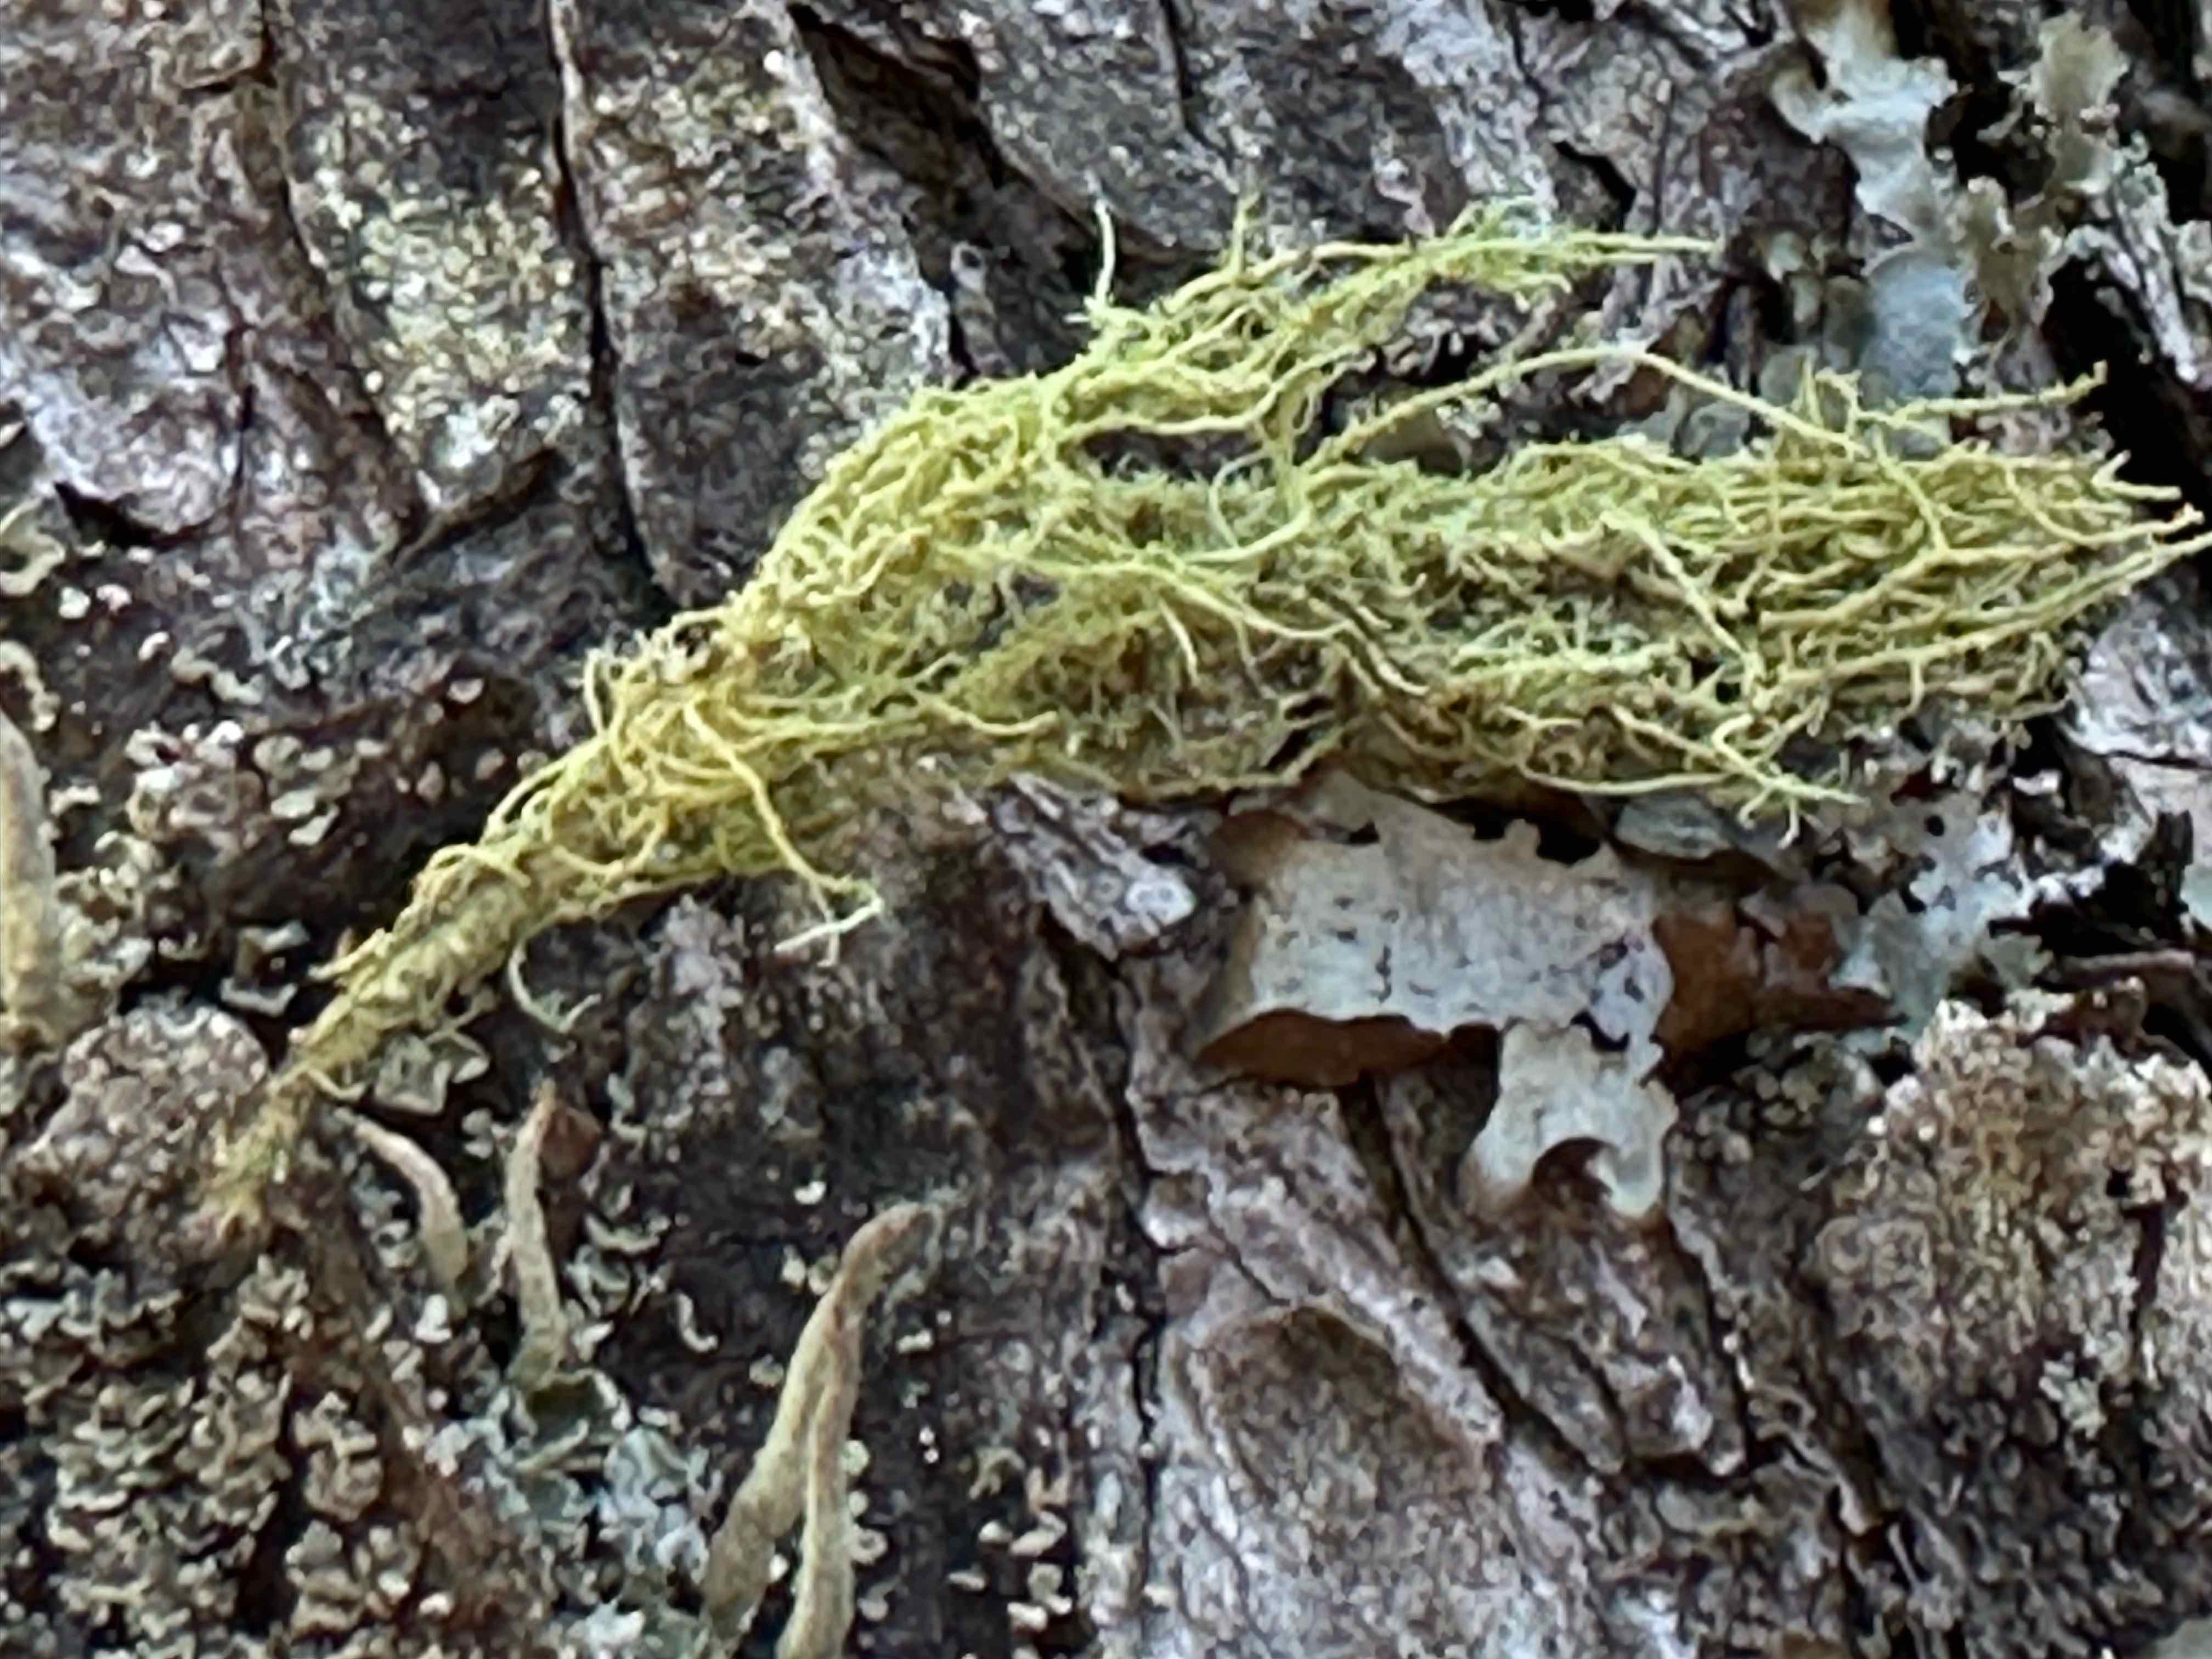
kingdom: Fungi
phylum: Ascomycota
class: Lecanoromycetes
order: Lecanorales
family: Parmeliaceae
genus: Usnea
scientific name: Usnea hirta
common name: liden skæglav
